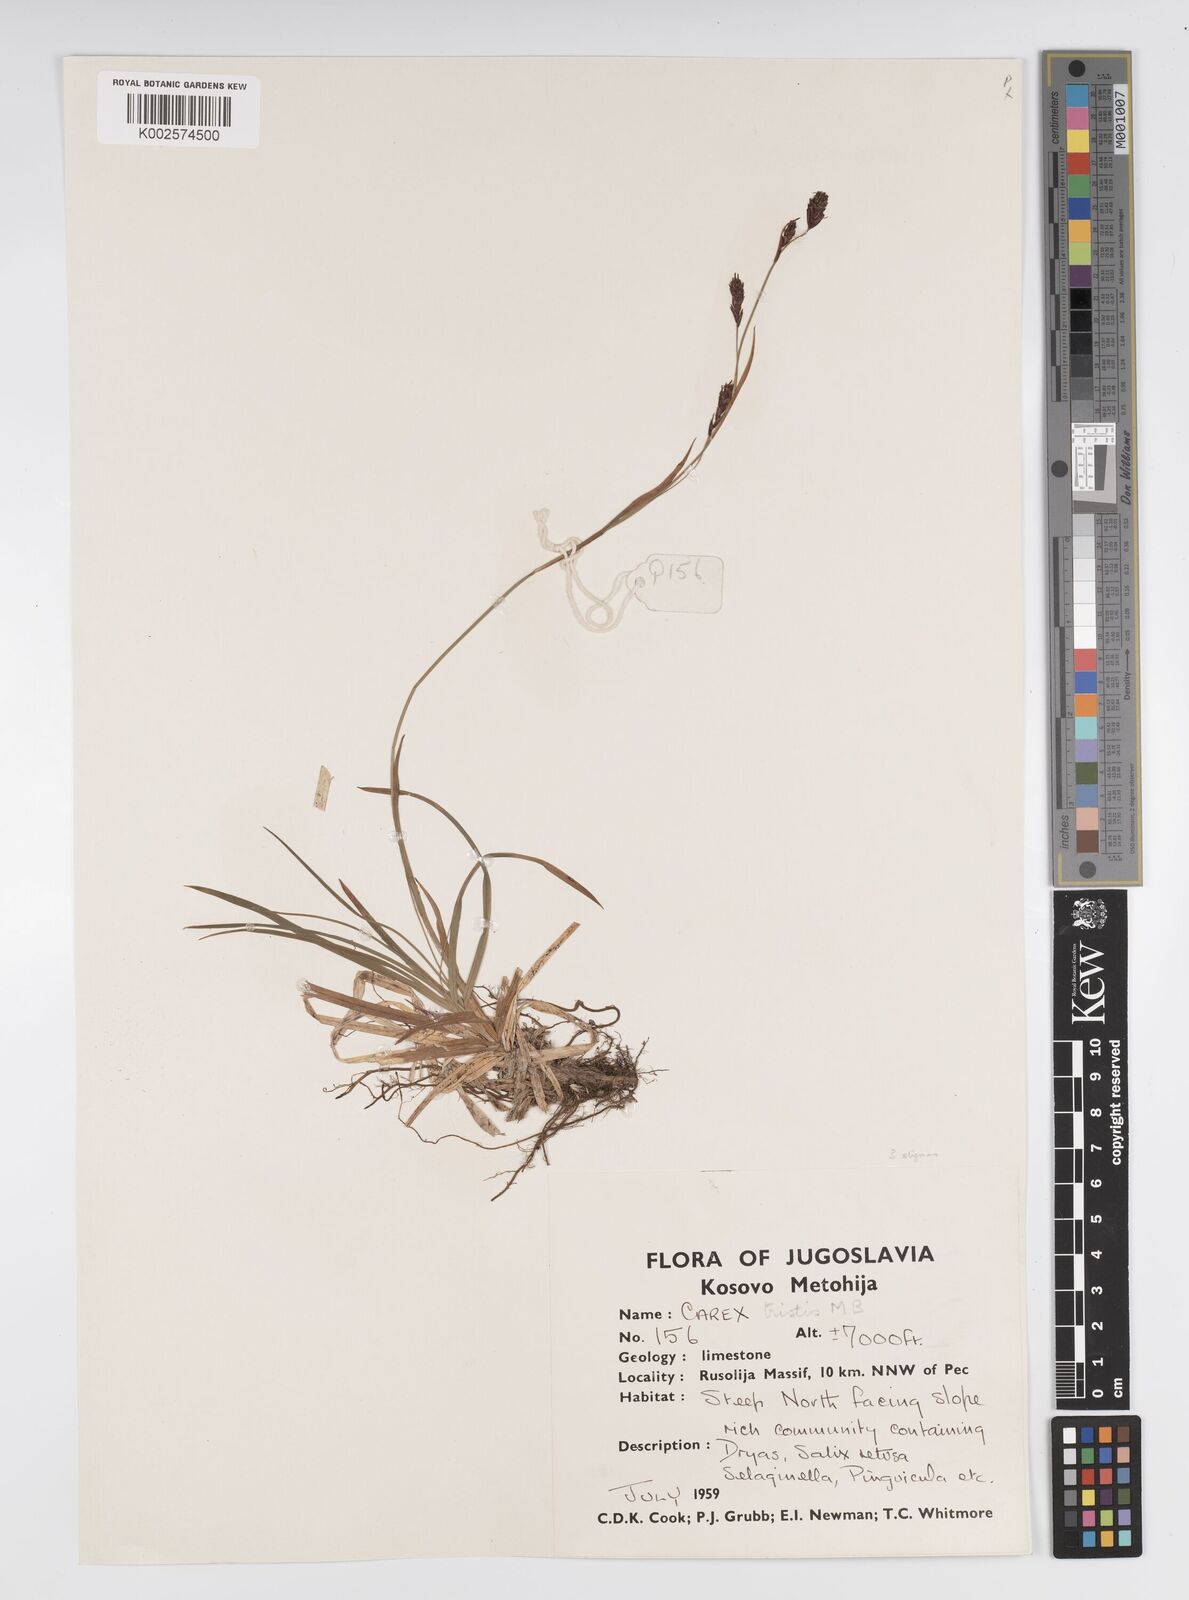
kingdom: Plantae
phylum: Tracheophyta
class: Liliopsida
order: Poales
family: Cyperaceae
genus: Carex
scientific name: Carex sempervirens
